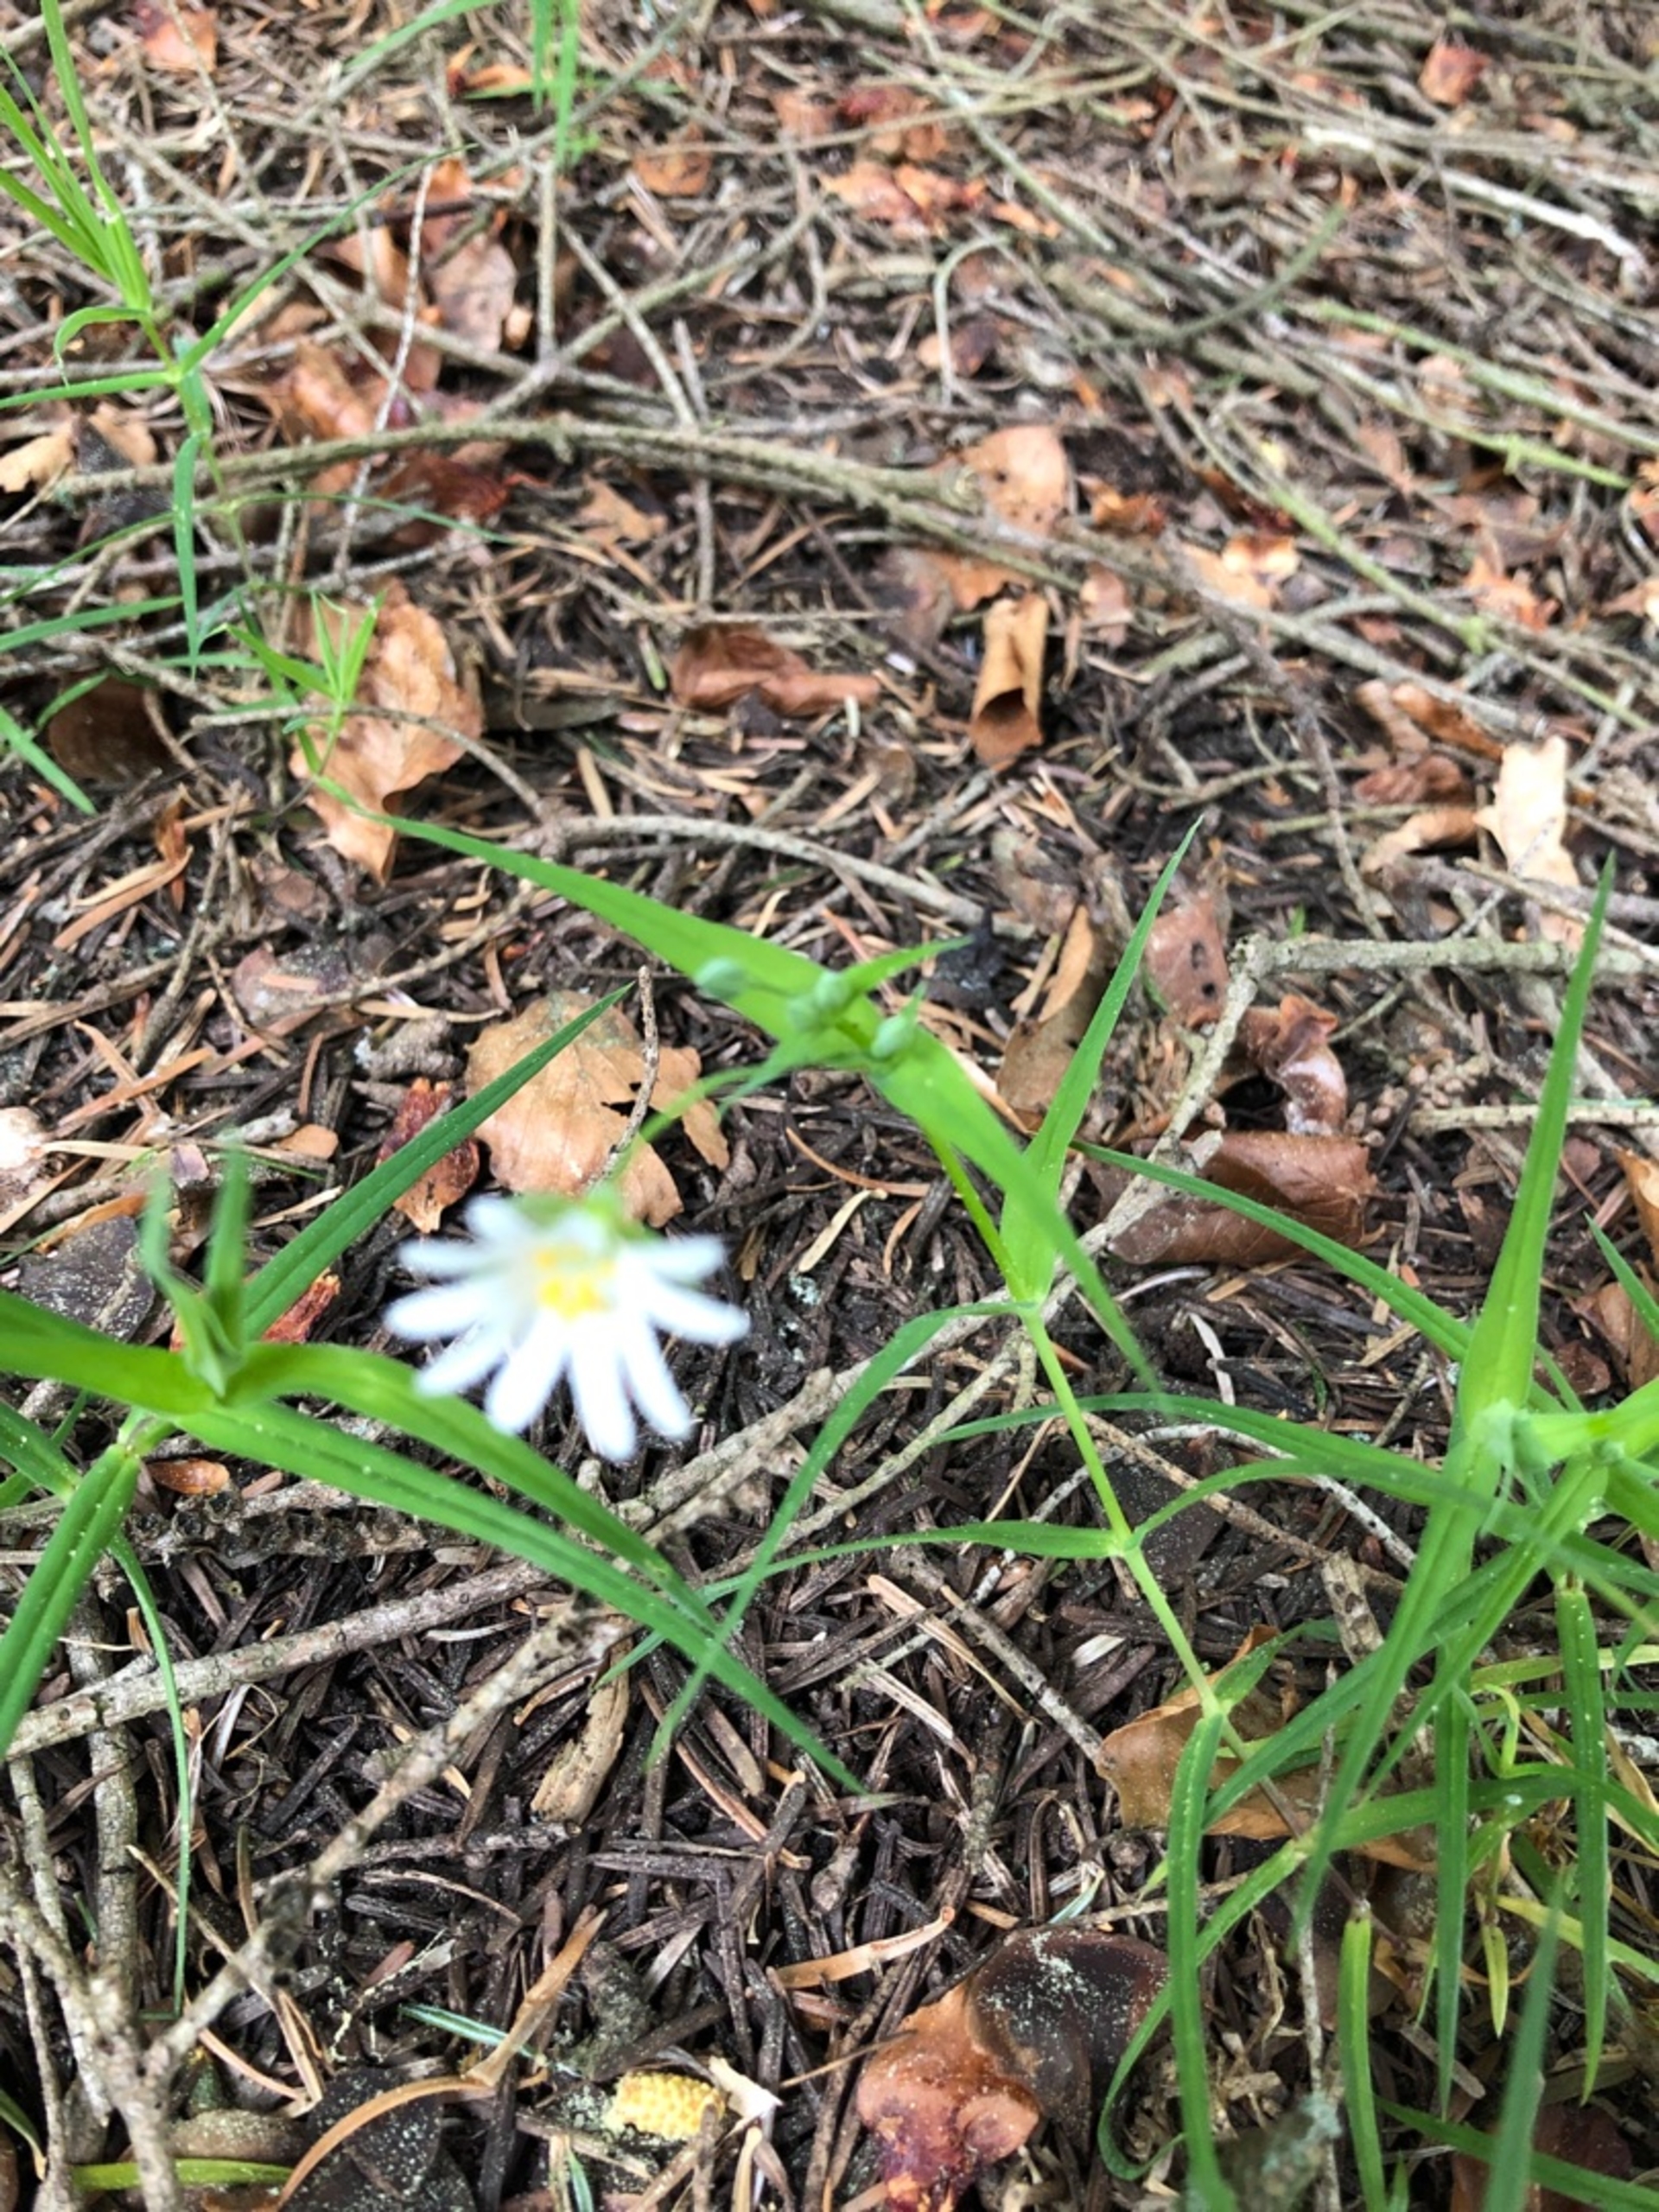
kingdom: Plantae
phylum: Tracheophyta
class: Magnoliopsida
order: Caryophyllales
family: Caryophyllaceae
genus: Rabelera
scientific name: Rabelera holostea
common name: Stor fladstjerne
